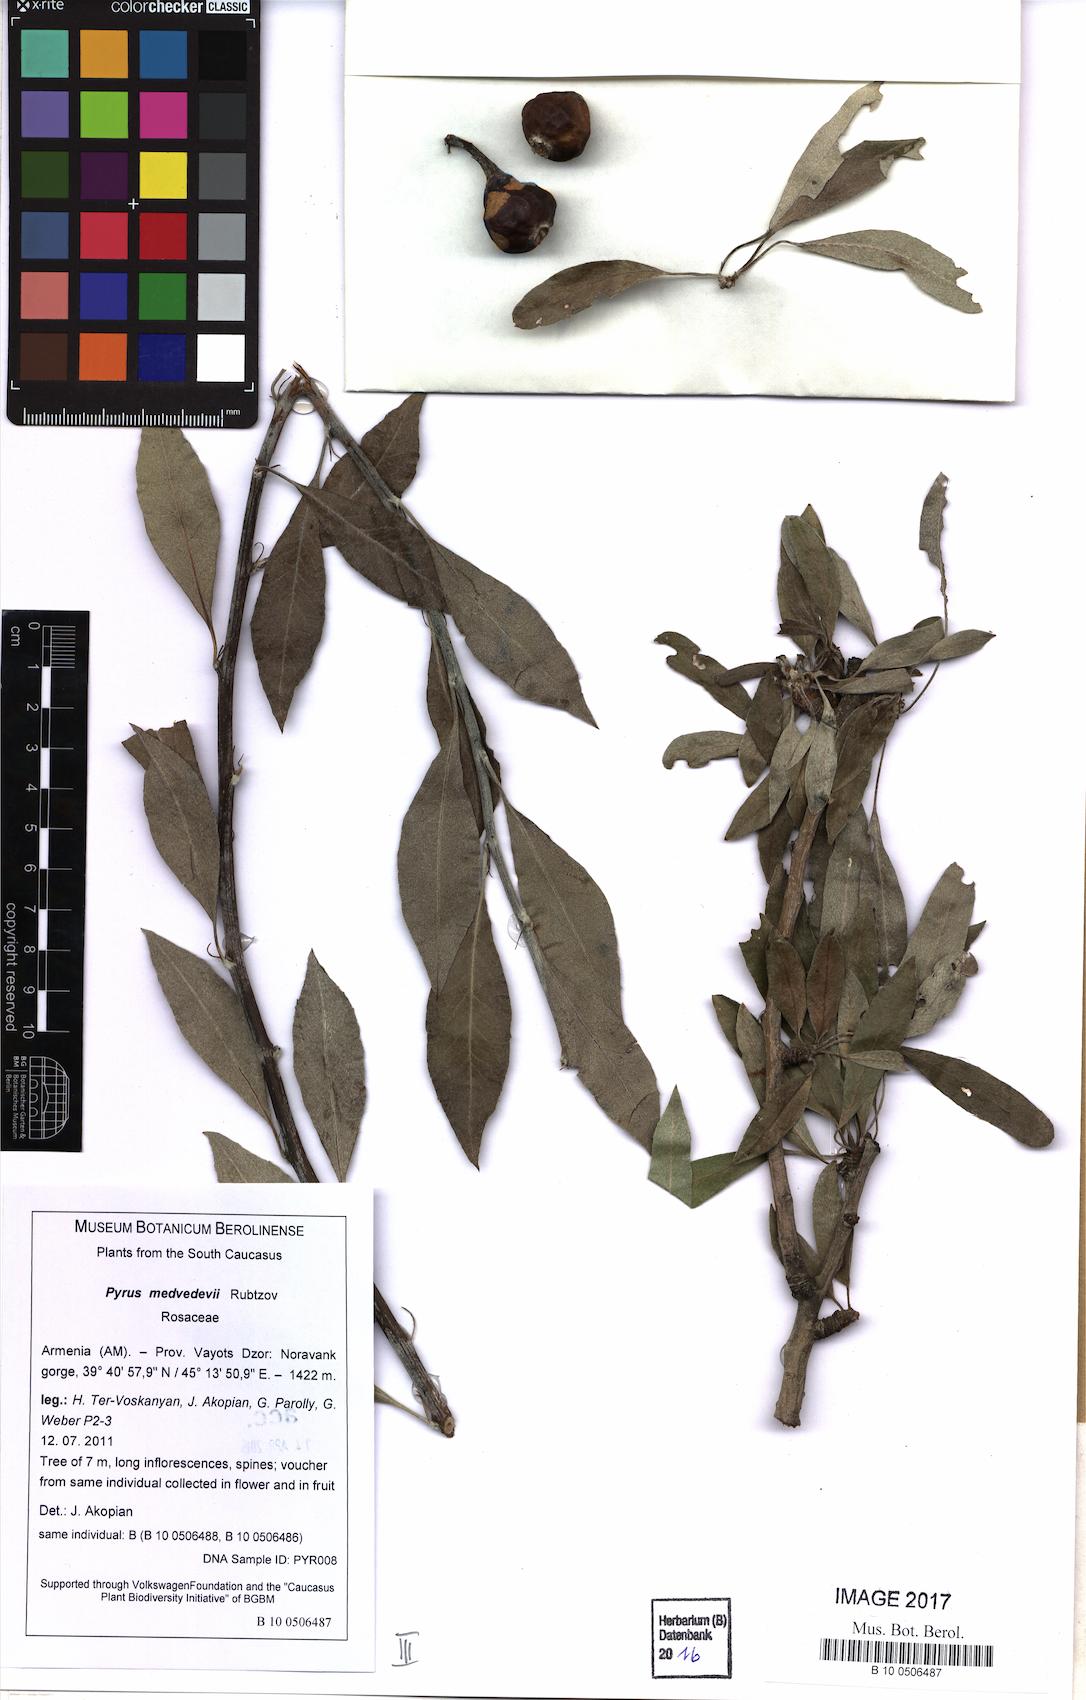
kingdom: Plantae
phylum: Tracheophyta
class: Magnoliopsida
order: Rosales
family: Rosaceae
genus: Pyrus
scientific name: Pyrus medvedevii
